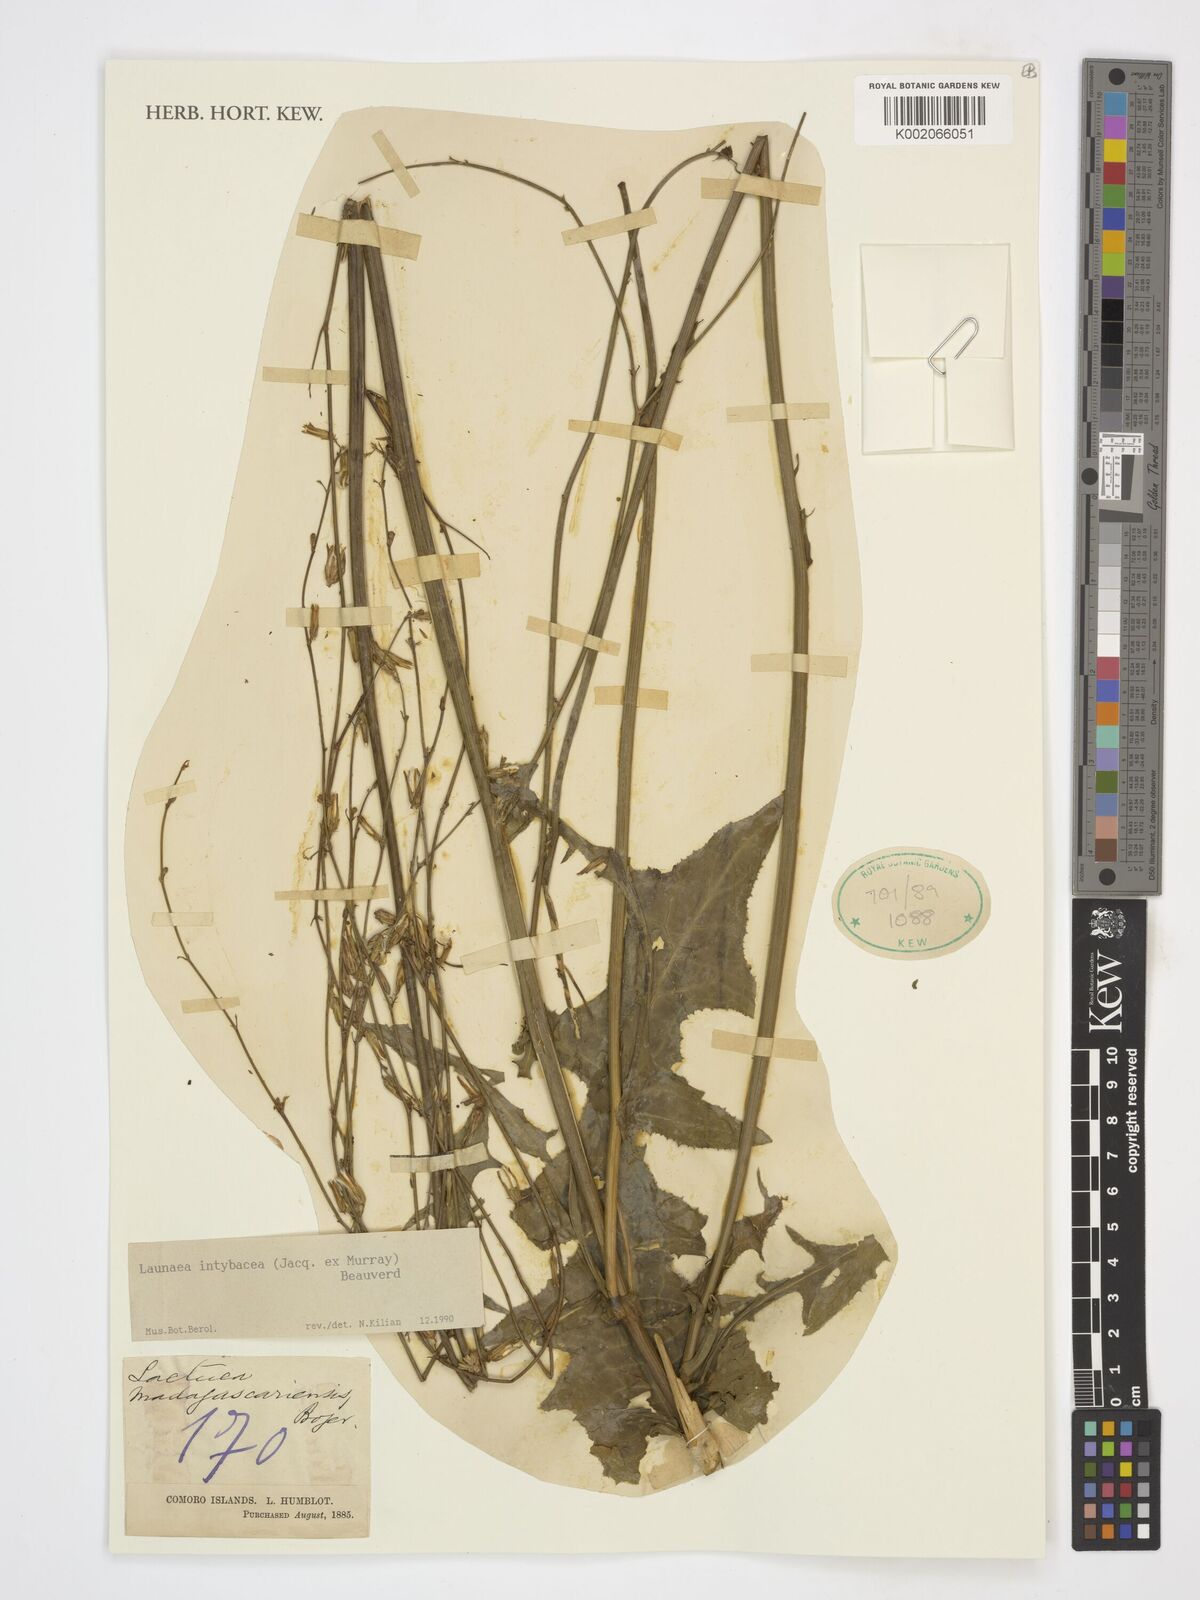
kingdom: Plantae
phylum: Tracheophyta
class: Magnoliopsida
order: Asterales
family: Asteraceae
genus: Launaea
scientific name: Launaea intybacea
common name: Achicoria azul
